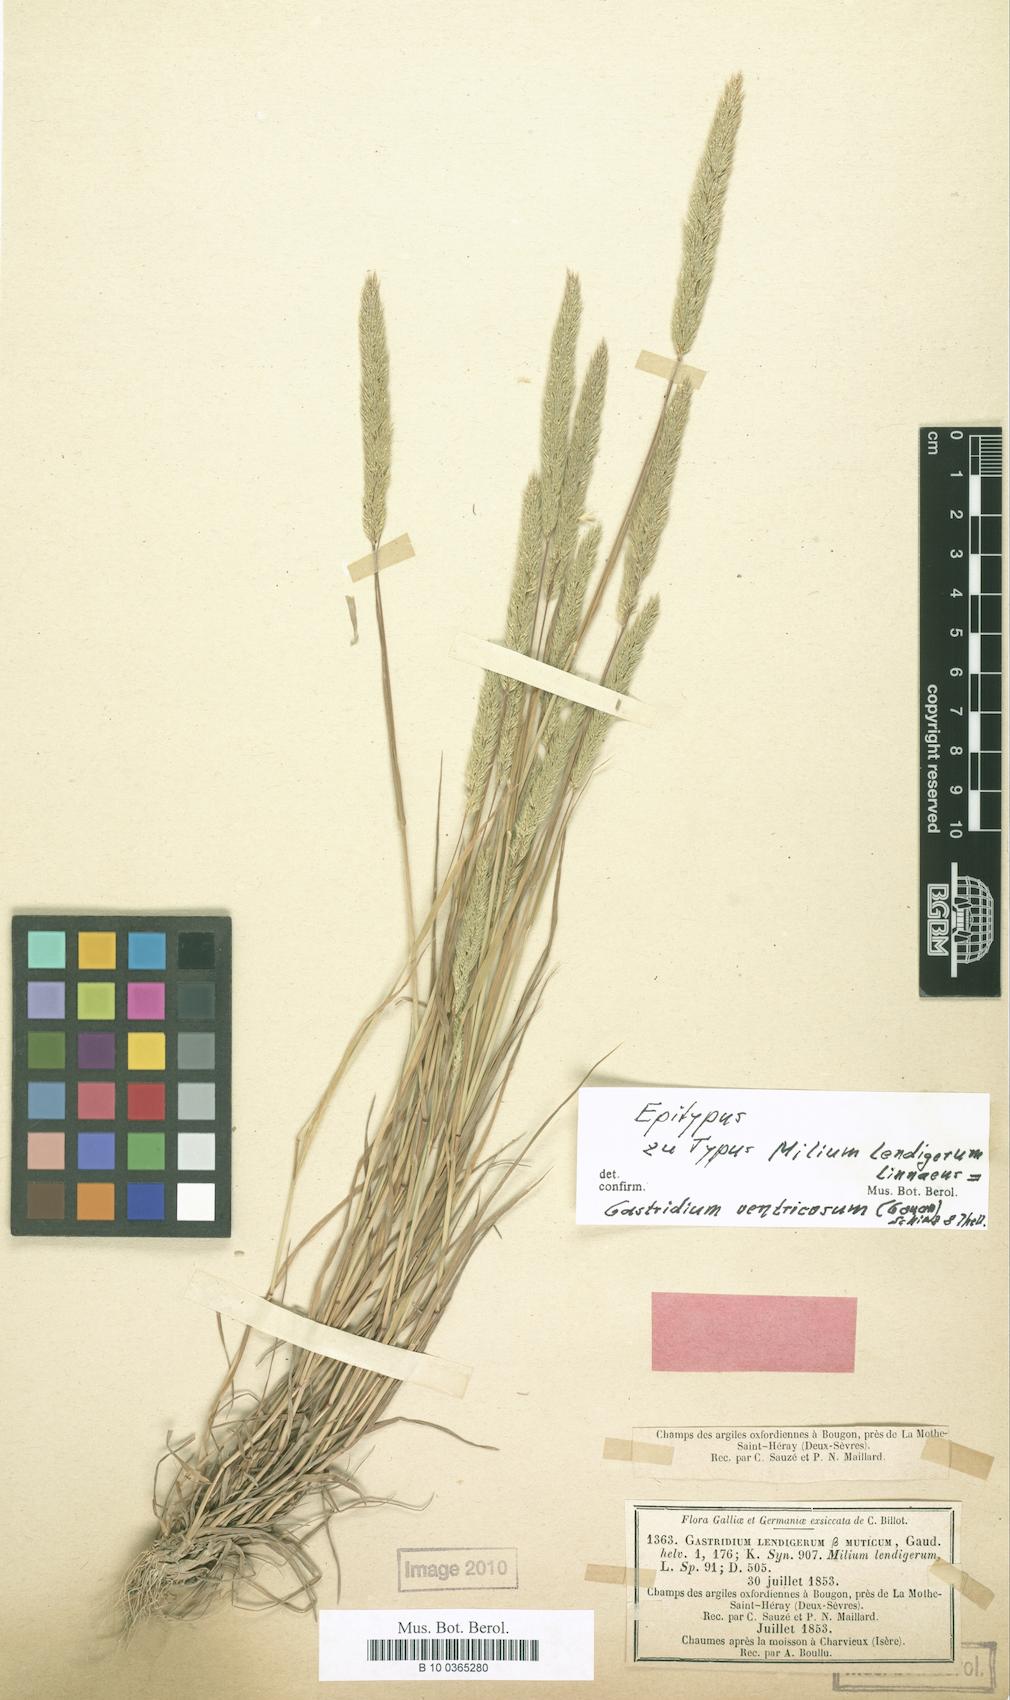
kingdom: Plantae
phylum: Tracheophyta
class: Liliopsida
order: Poales
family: Poaceae
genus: Gastridium
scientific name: Gastridium ventricosum
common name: Nit-grass
